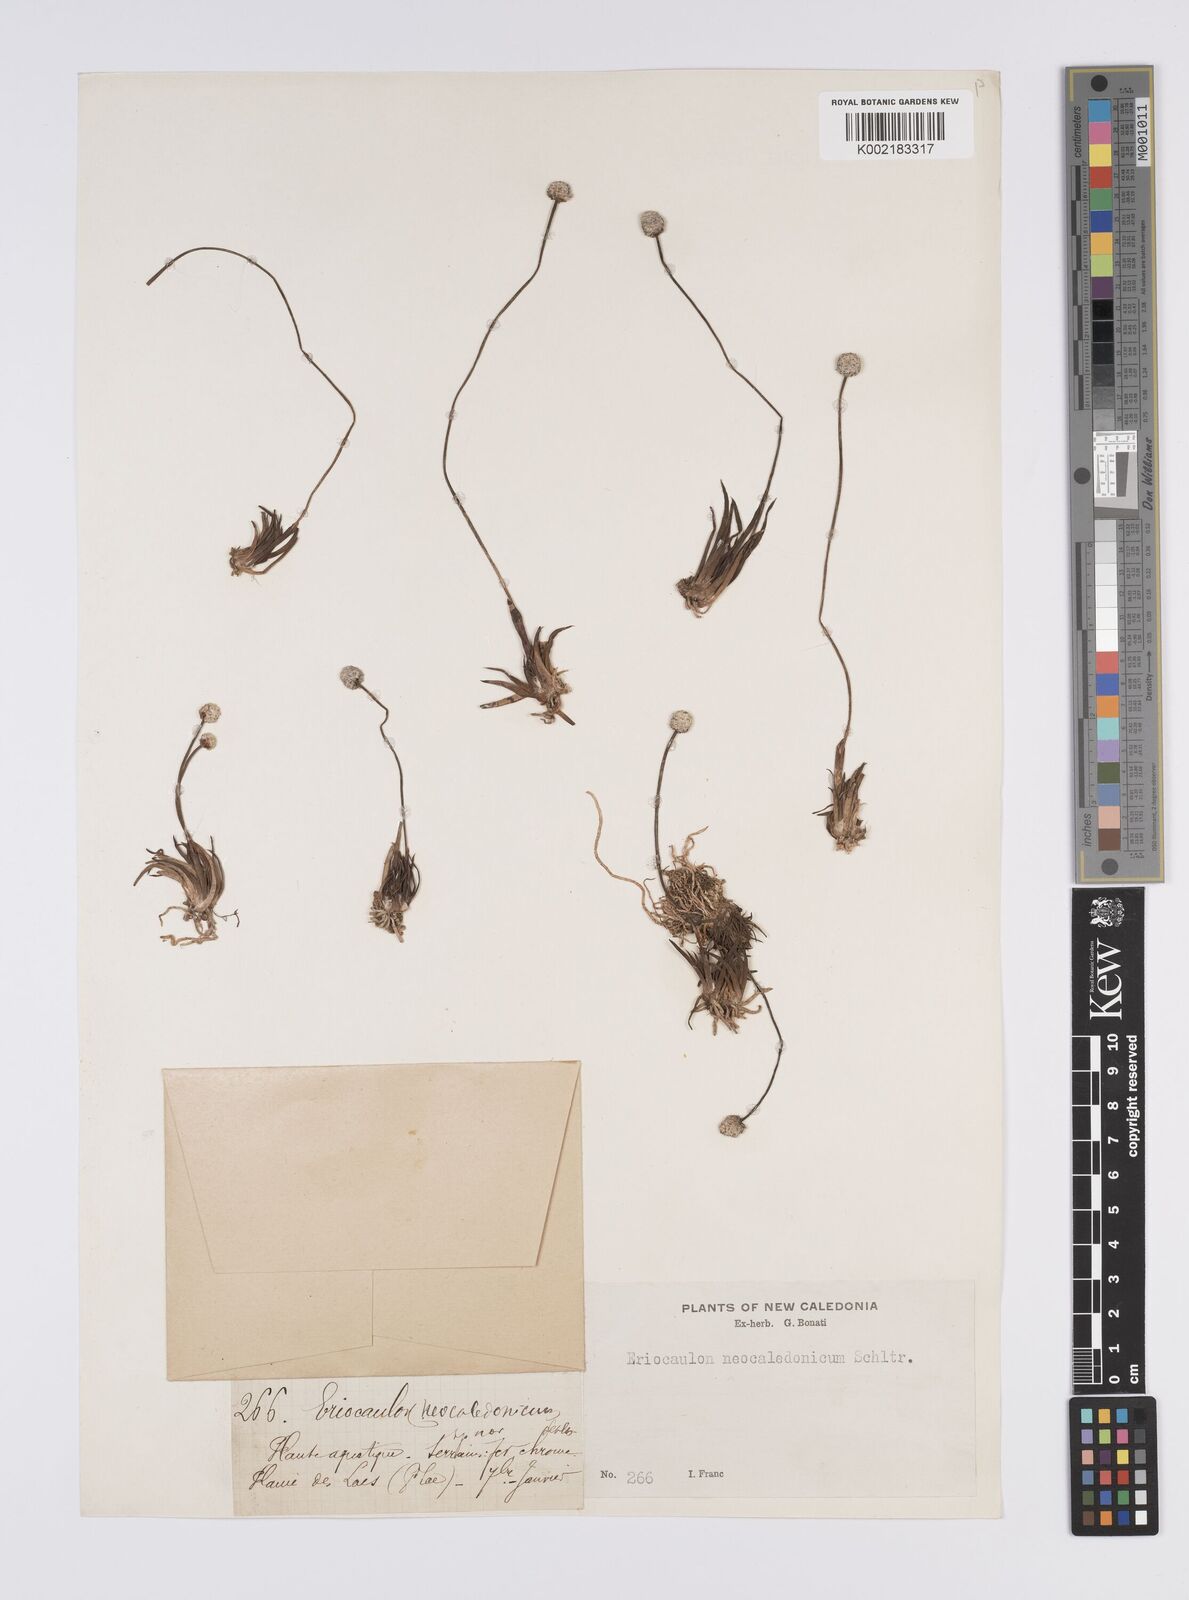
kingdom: Plantae
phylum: Tracheophyta
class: Liliopsida
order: Poales
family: Eriocaulaceae
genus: Eriocaulon
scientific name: Eriocaulon neocaledonicum
